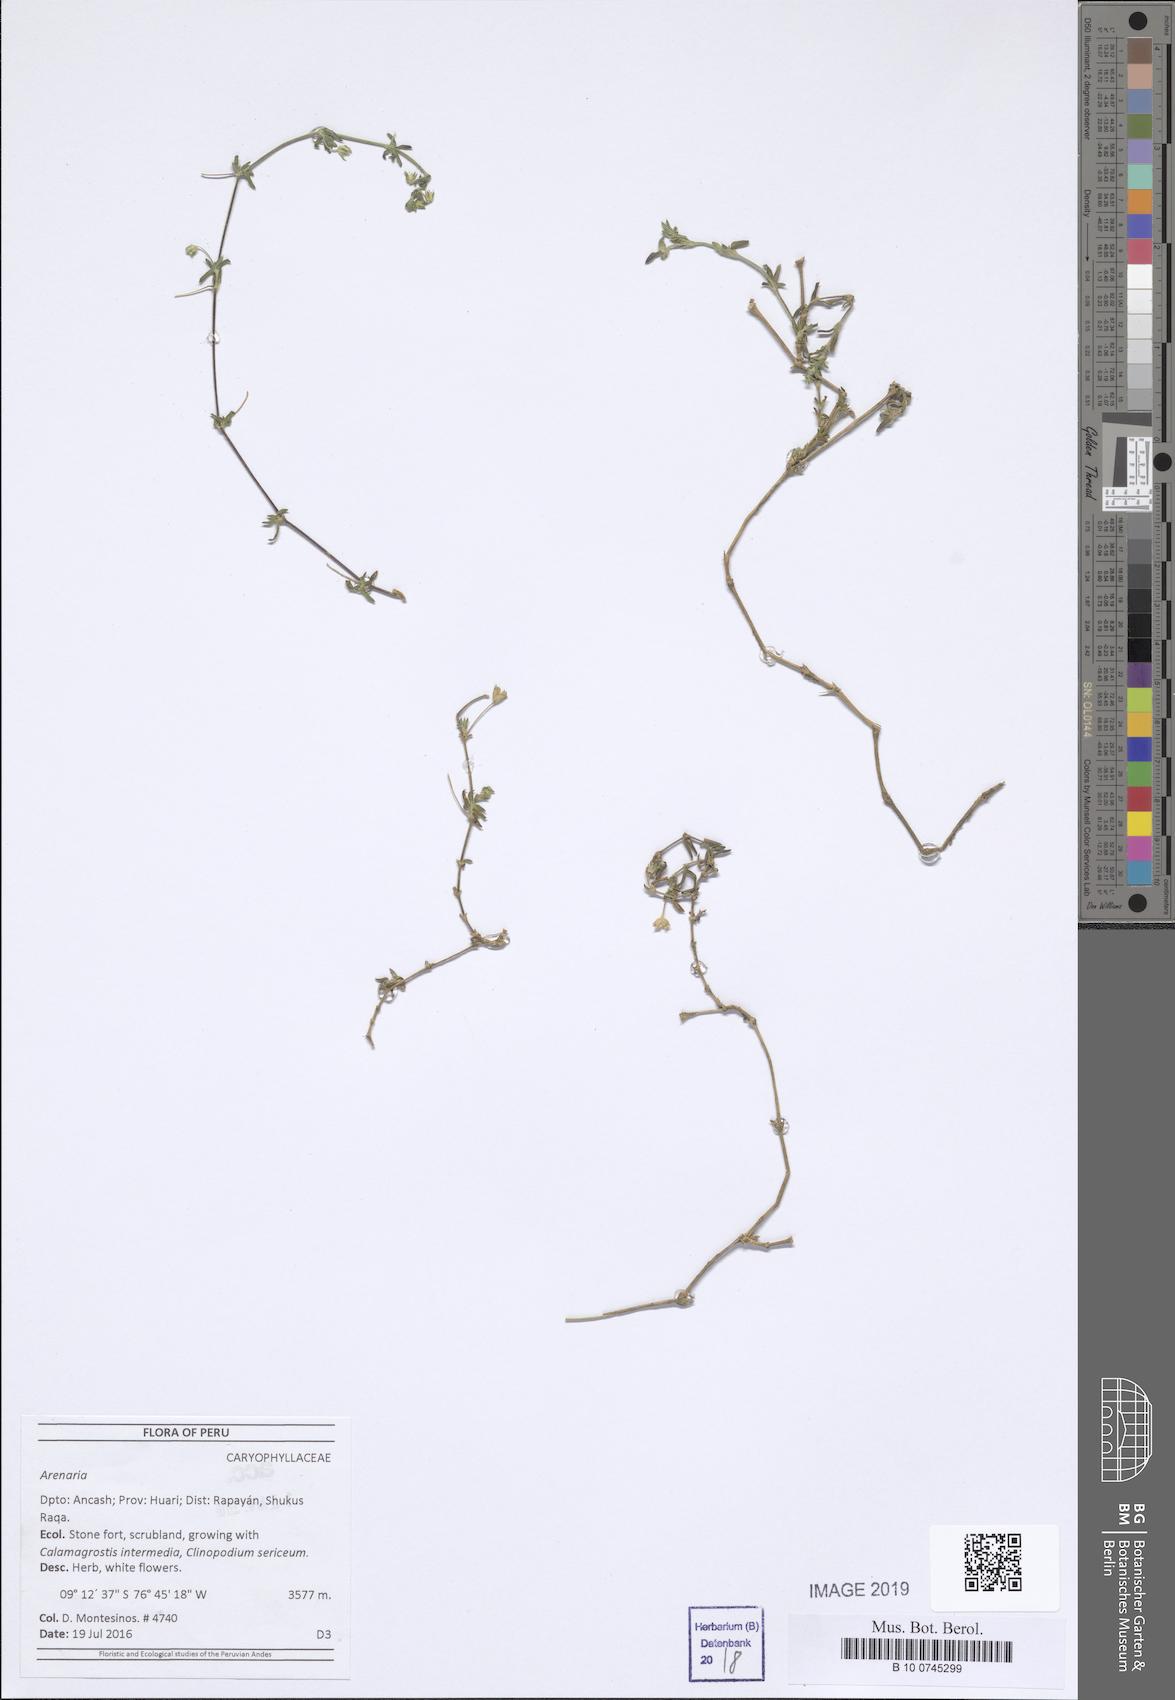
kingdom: Plantae
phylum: Tracheophyta
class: Magnoliopsida
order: Caryophyllales
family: Caryophyllaceae
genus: Arenaria
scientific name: Arenaria
